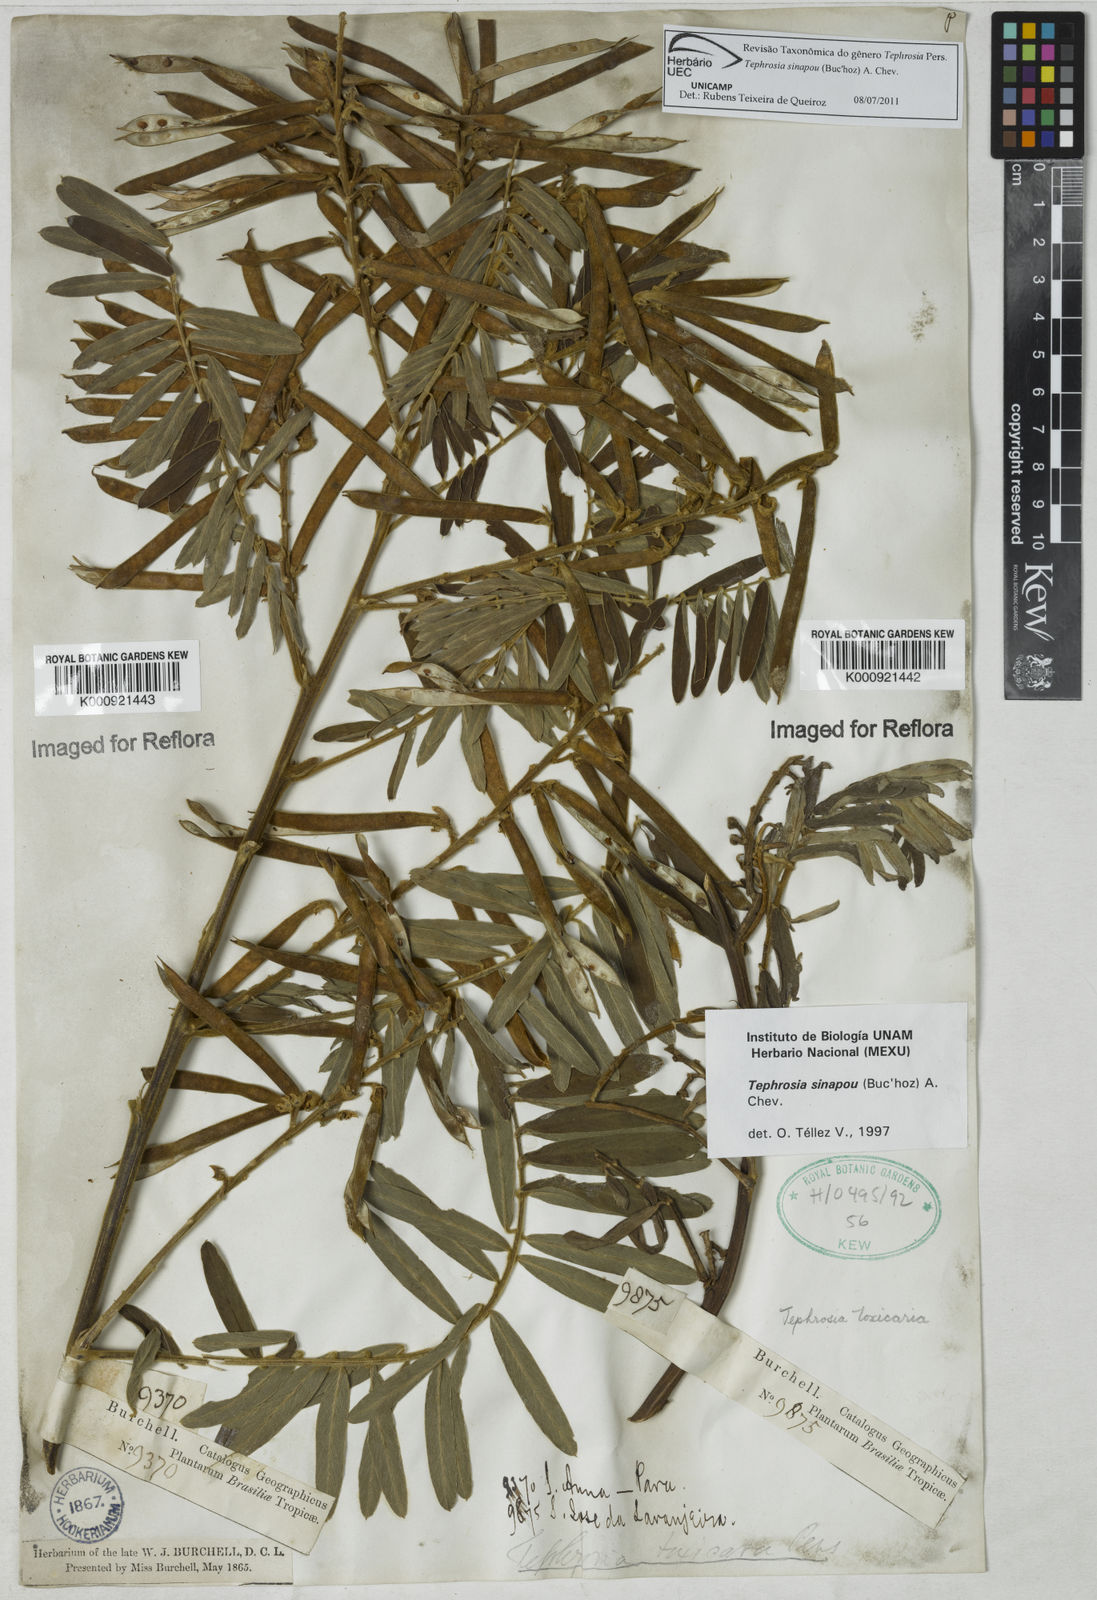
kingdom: Plantae
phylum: Tracheophyta
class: Magnoliopsida
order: Fabales
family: Fabaceae
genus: Tephrosia
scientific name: Tephrosia
